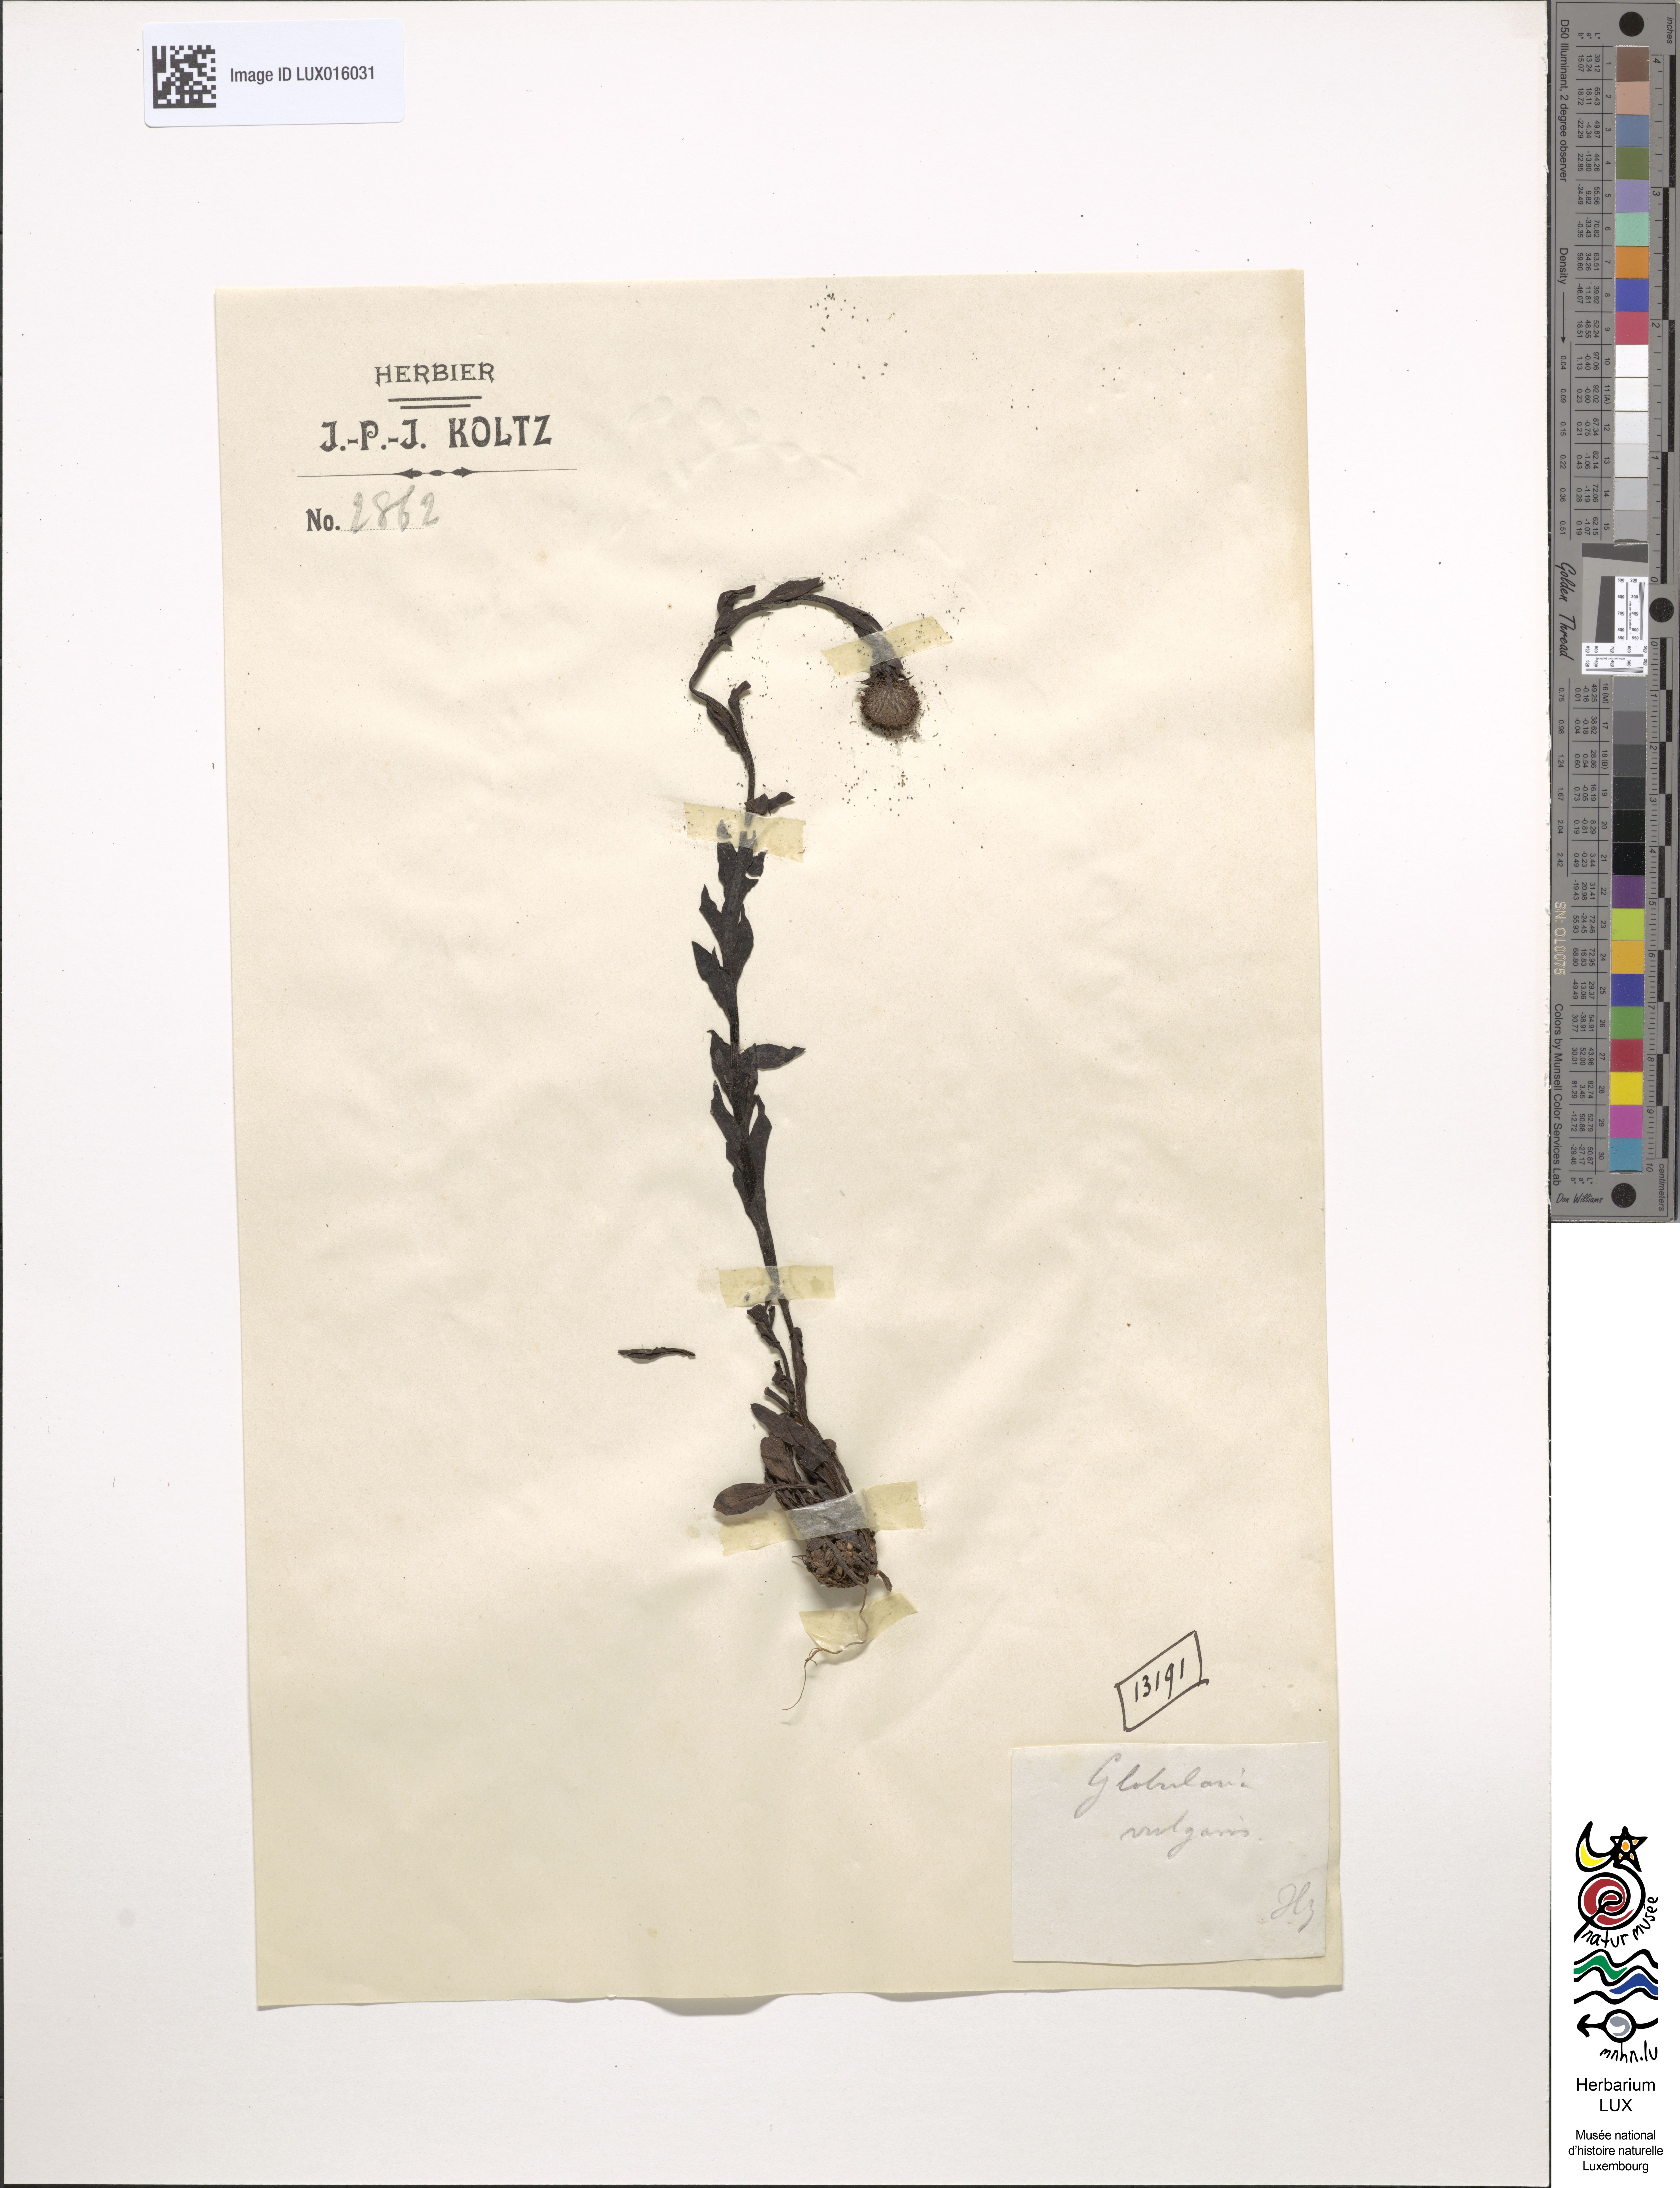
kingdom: Plantae
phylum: Tracheophyta
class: Magnoliopsida
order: Lamiales
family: Plantaginaceae
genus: Globularia
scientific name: Globularia bisnagarica
